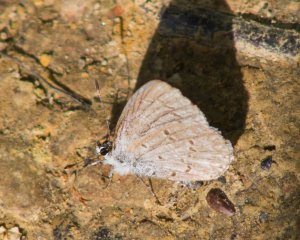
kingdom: Animalia
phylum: Arthropoda
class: Insecta
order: Lepidoptera
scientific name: Lepidoptera
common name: Butterflies
